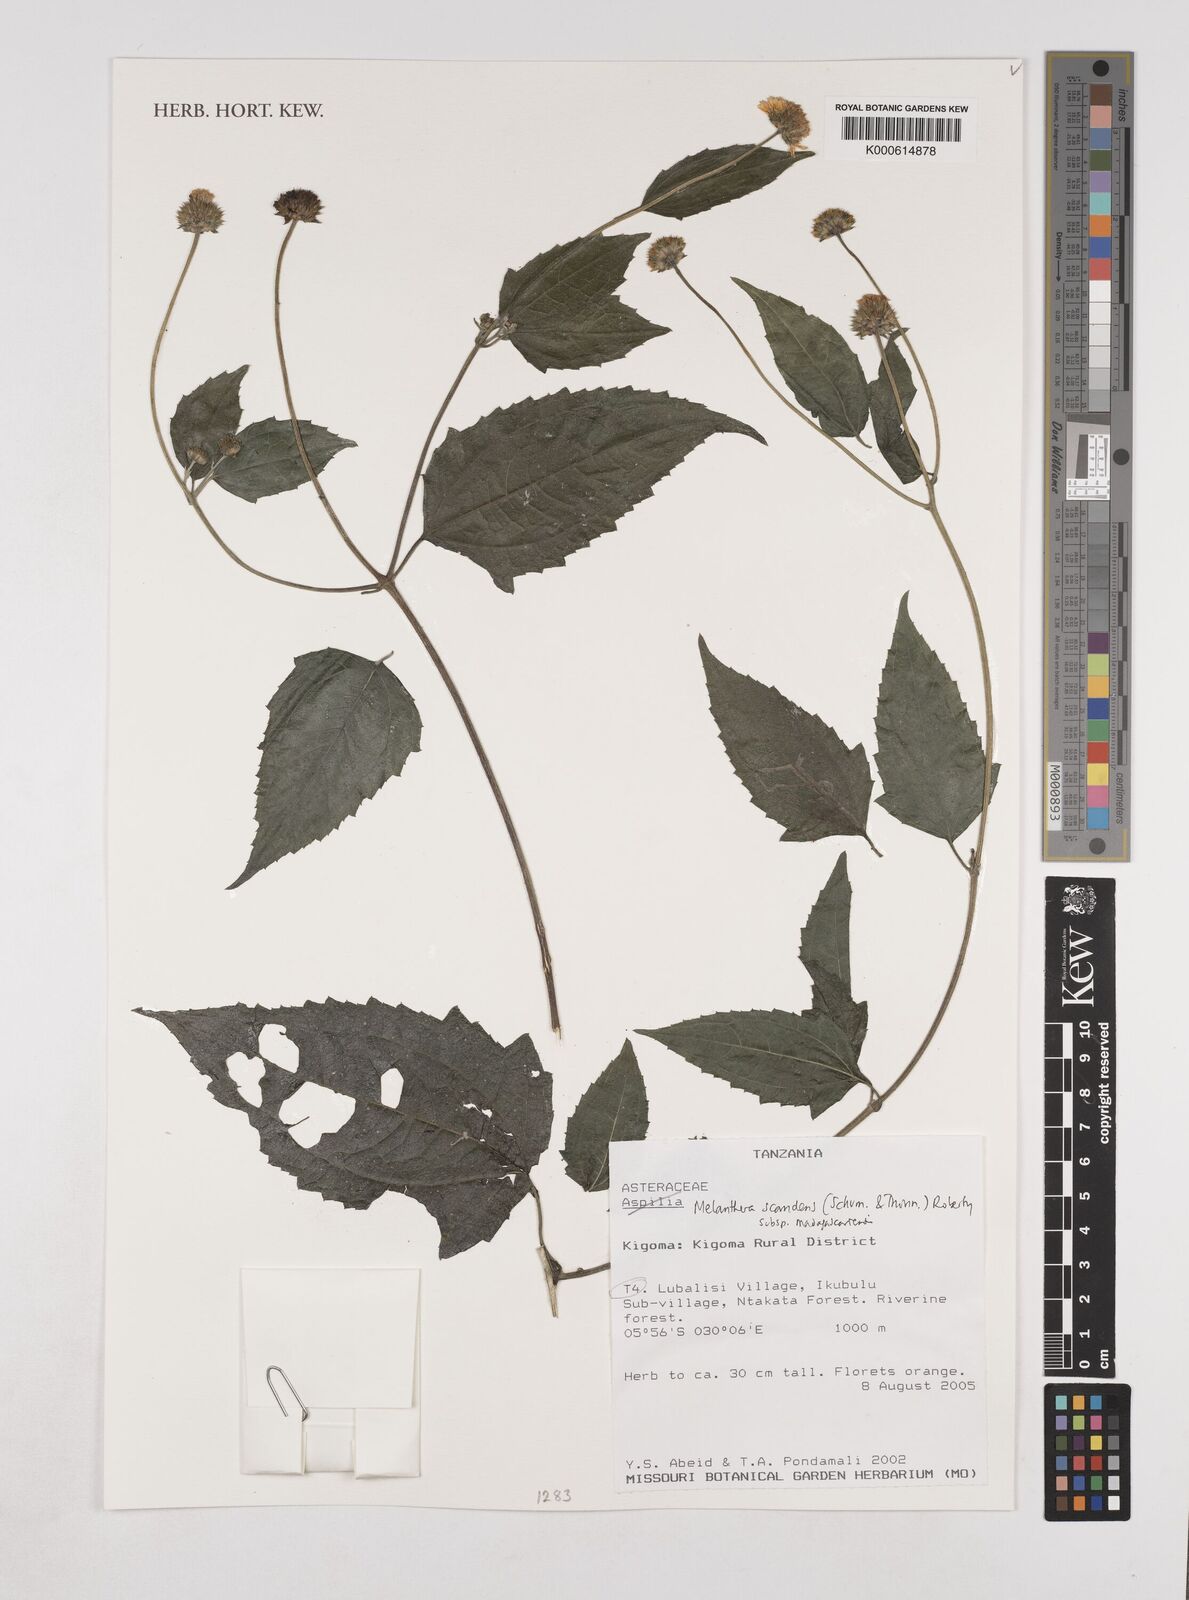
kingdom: Plantae
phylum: Tracheophyta
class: Magnoliopsida
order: Asterales
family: Asteraceae
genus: Melanthera
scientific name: Melanthera
